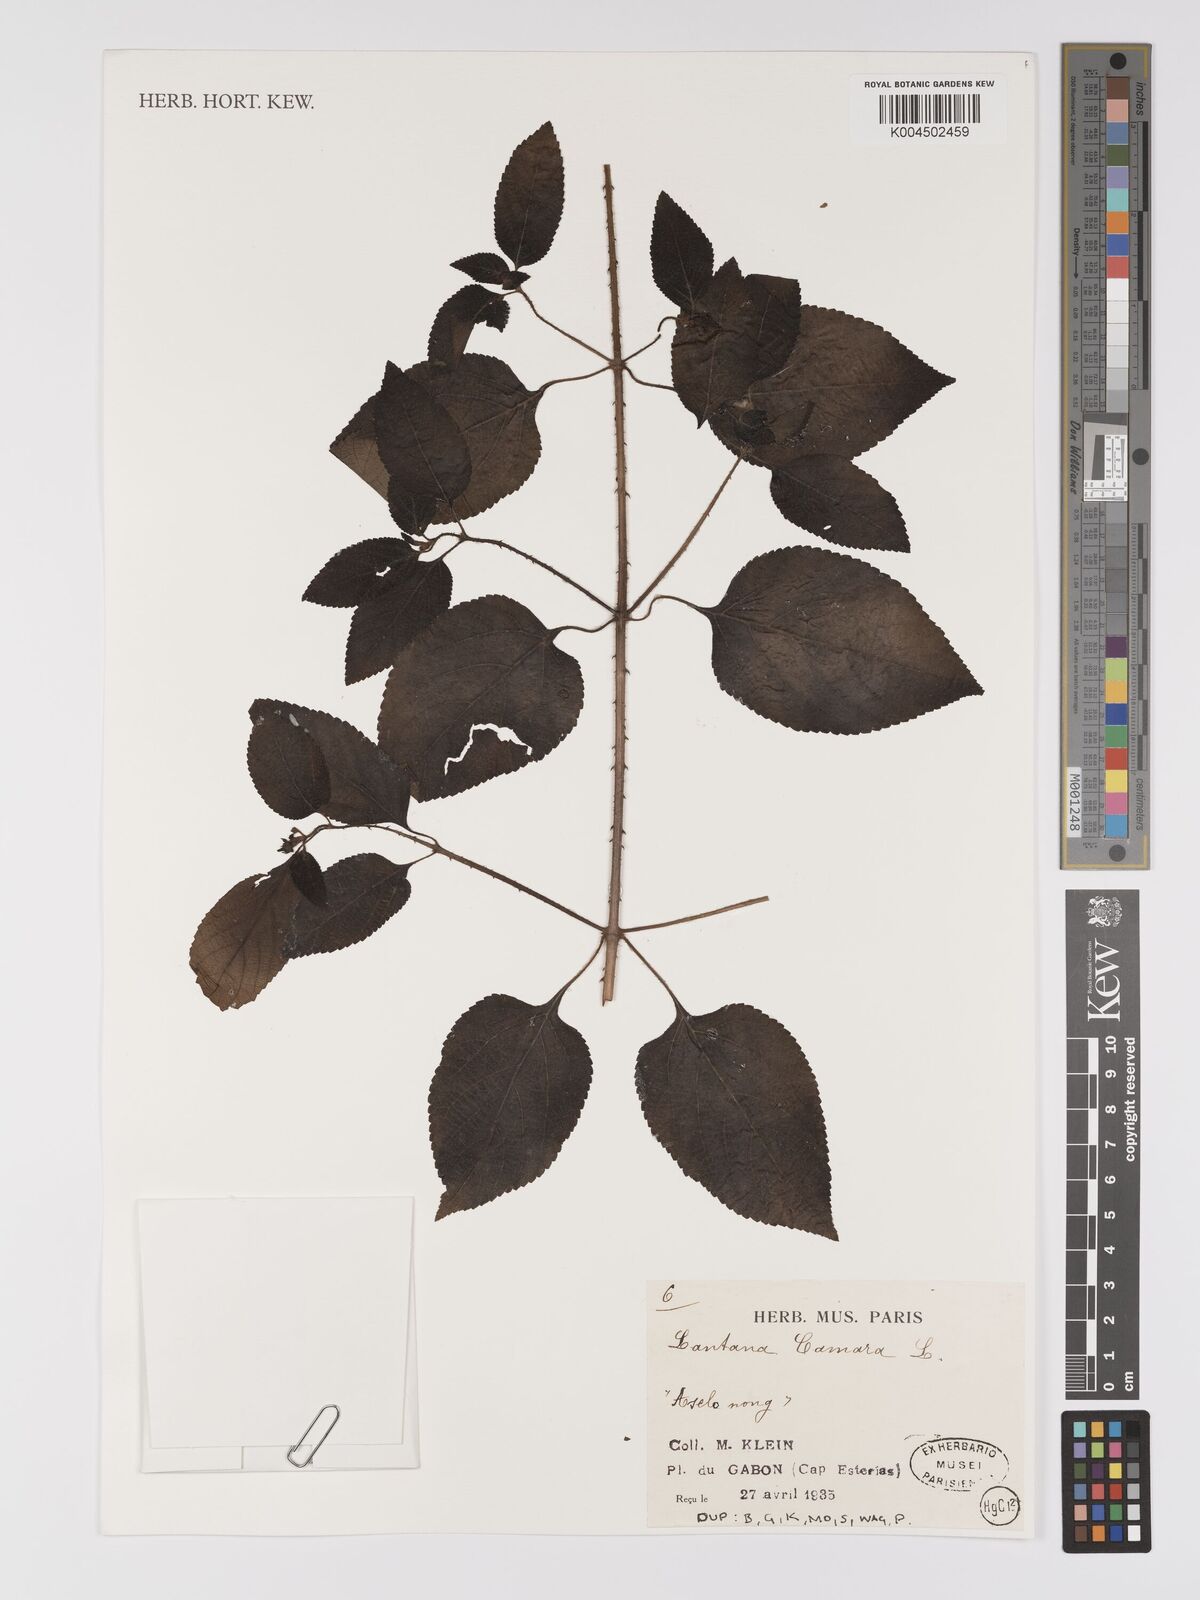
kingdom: Plantae
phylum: Tracheophyta
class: Magnoliopsida
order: Lamiales
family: Verbenaceae
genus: Lantana
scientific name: Lantana camara
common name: Lantana
